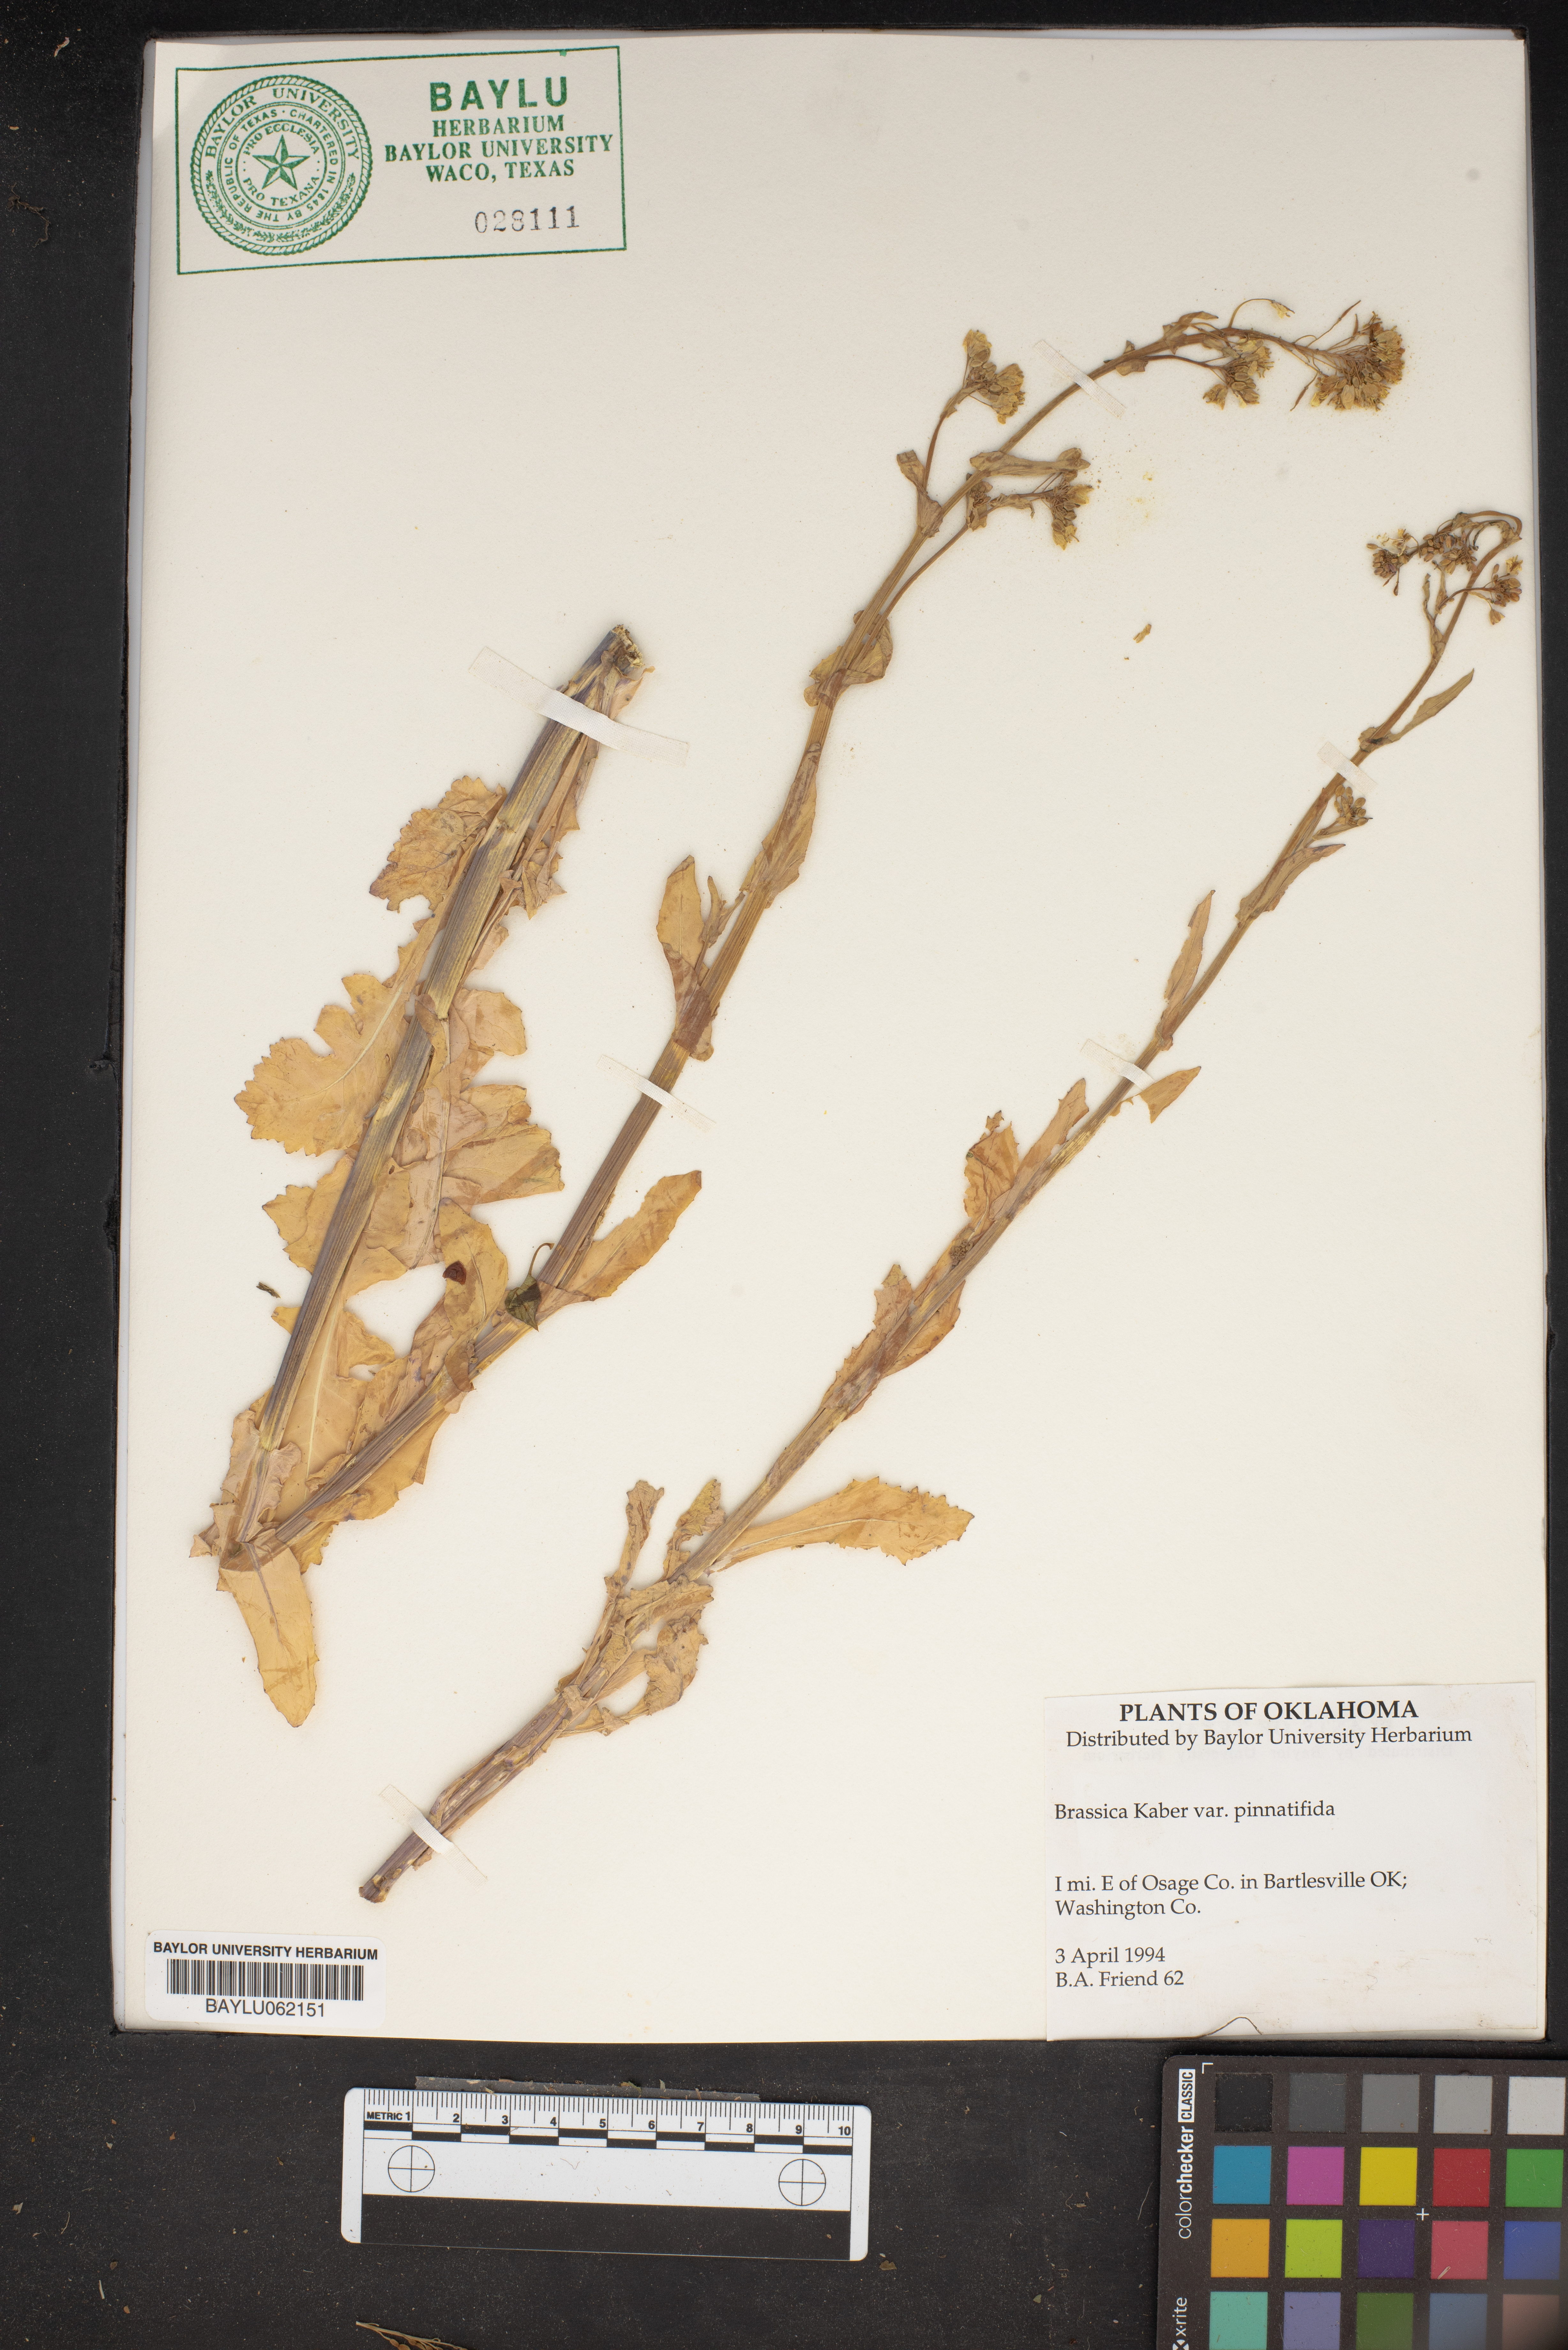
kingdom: Plantae
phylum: Tracheophyta
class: Magnoliopsida
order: Brassicales
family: Brassicaceae
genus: Sinapis
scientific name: Sinapis arvensis
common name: Charlock
